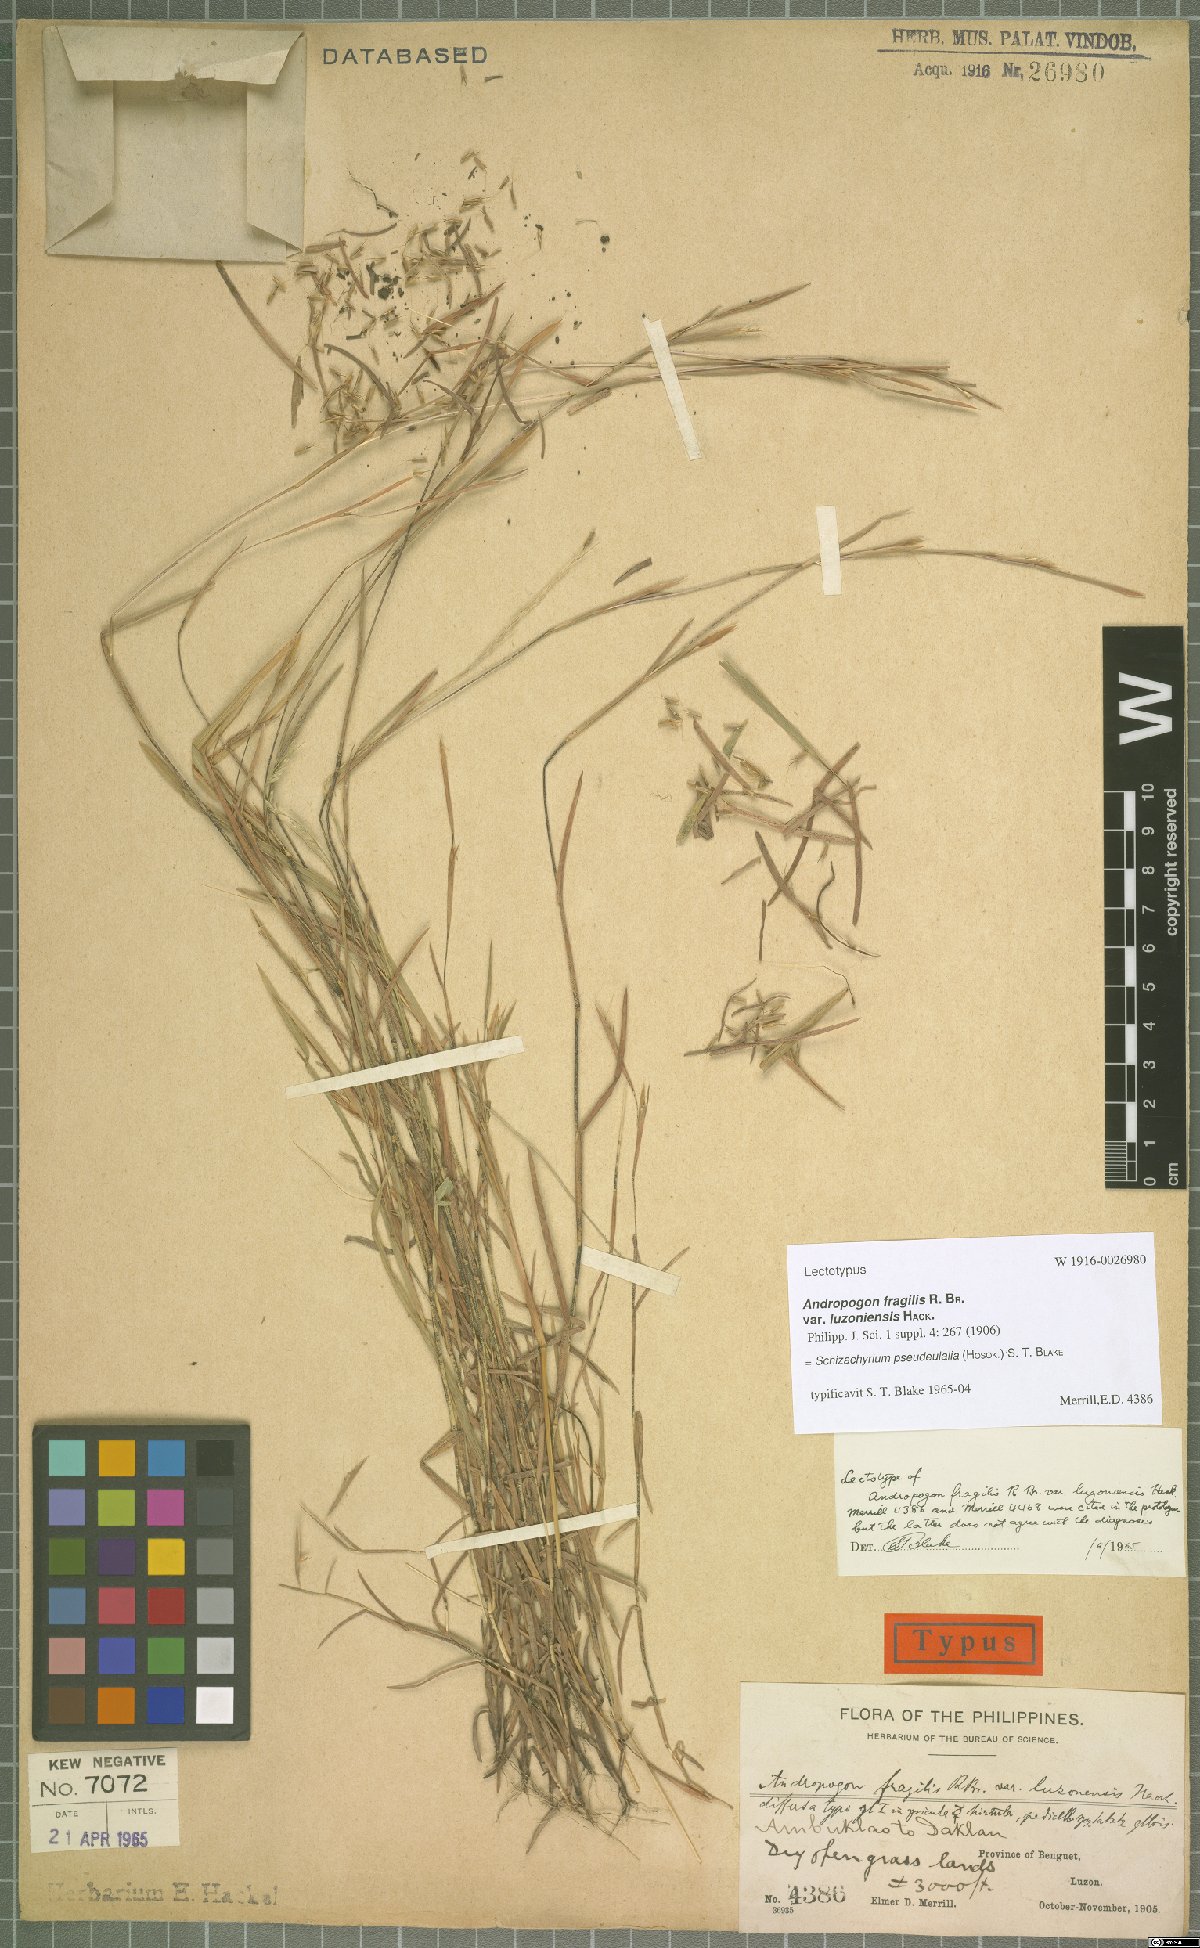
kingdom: Plantae
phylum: Tracheophyta
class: Liliopsida
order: Poales
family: Poaceae
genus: Schizachyrium
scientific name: Schizachyrium pseudeulalia
